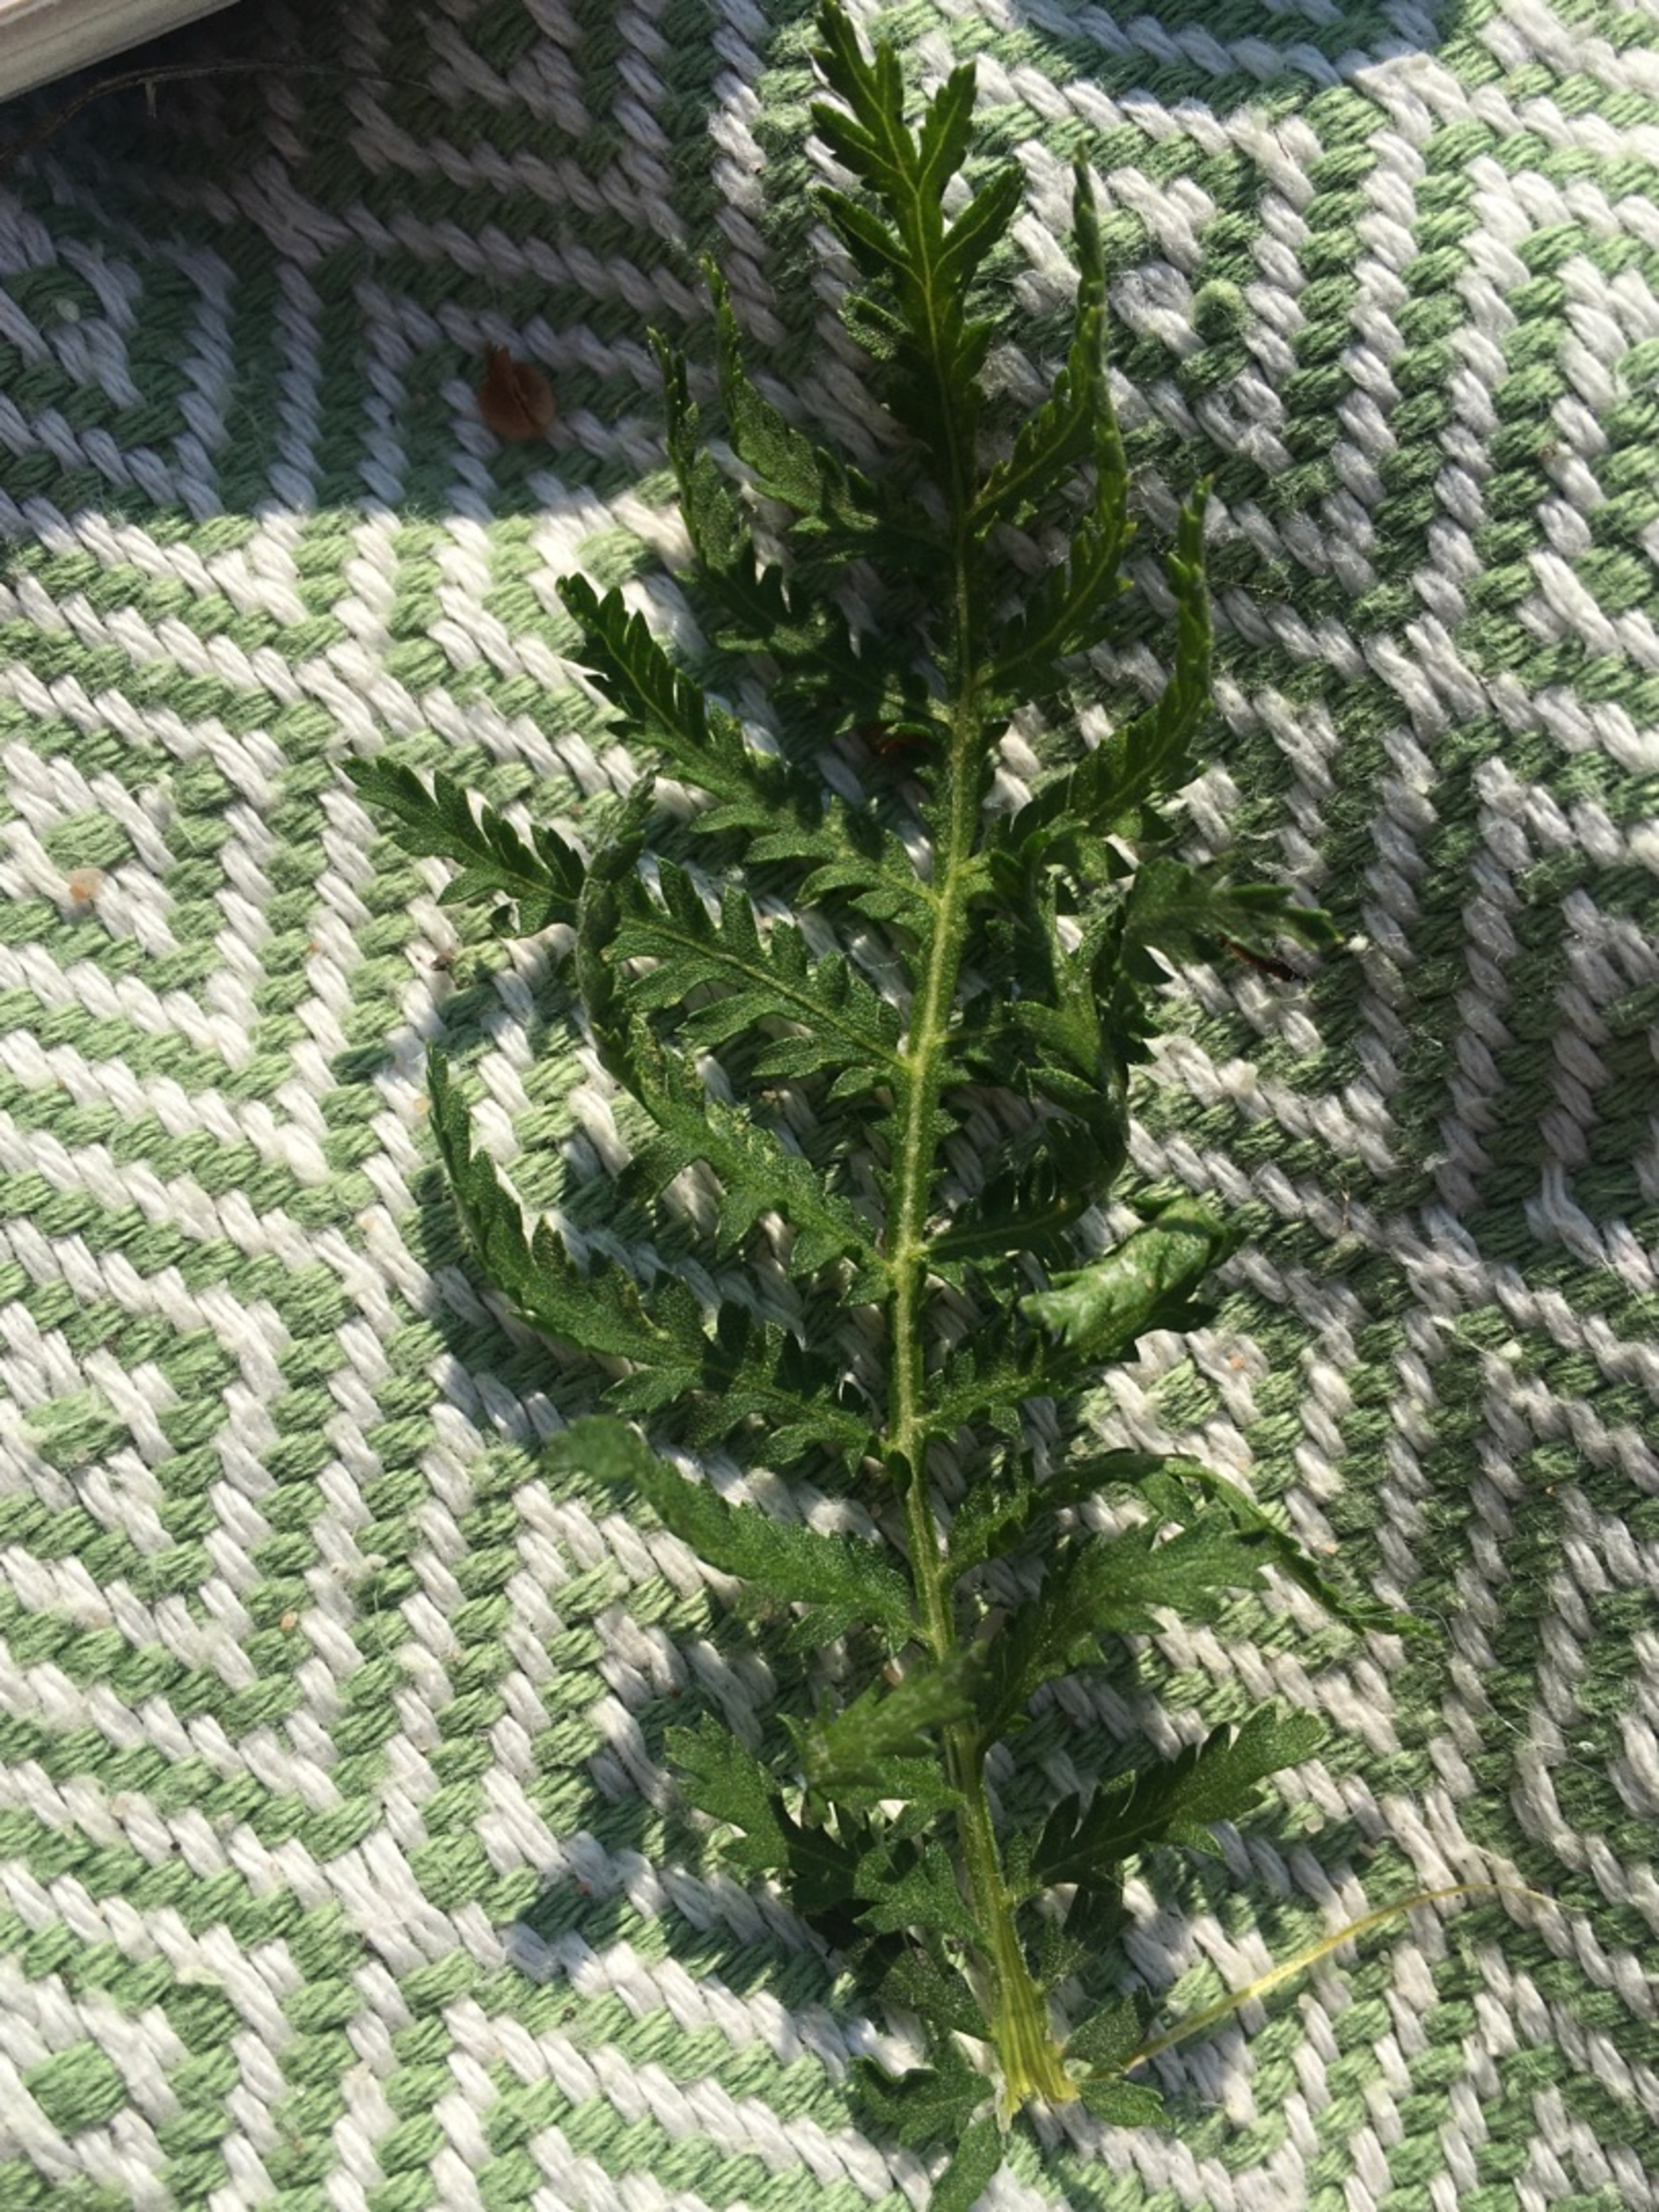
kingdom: Plantae
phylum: Tracheophyta
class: Magnoliopsida
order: Asterales
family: Asteraceae
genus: Tanacetum
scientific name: Tanacetum vulgare
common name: Rejnfan
